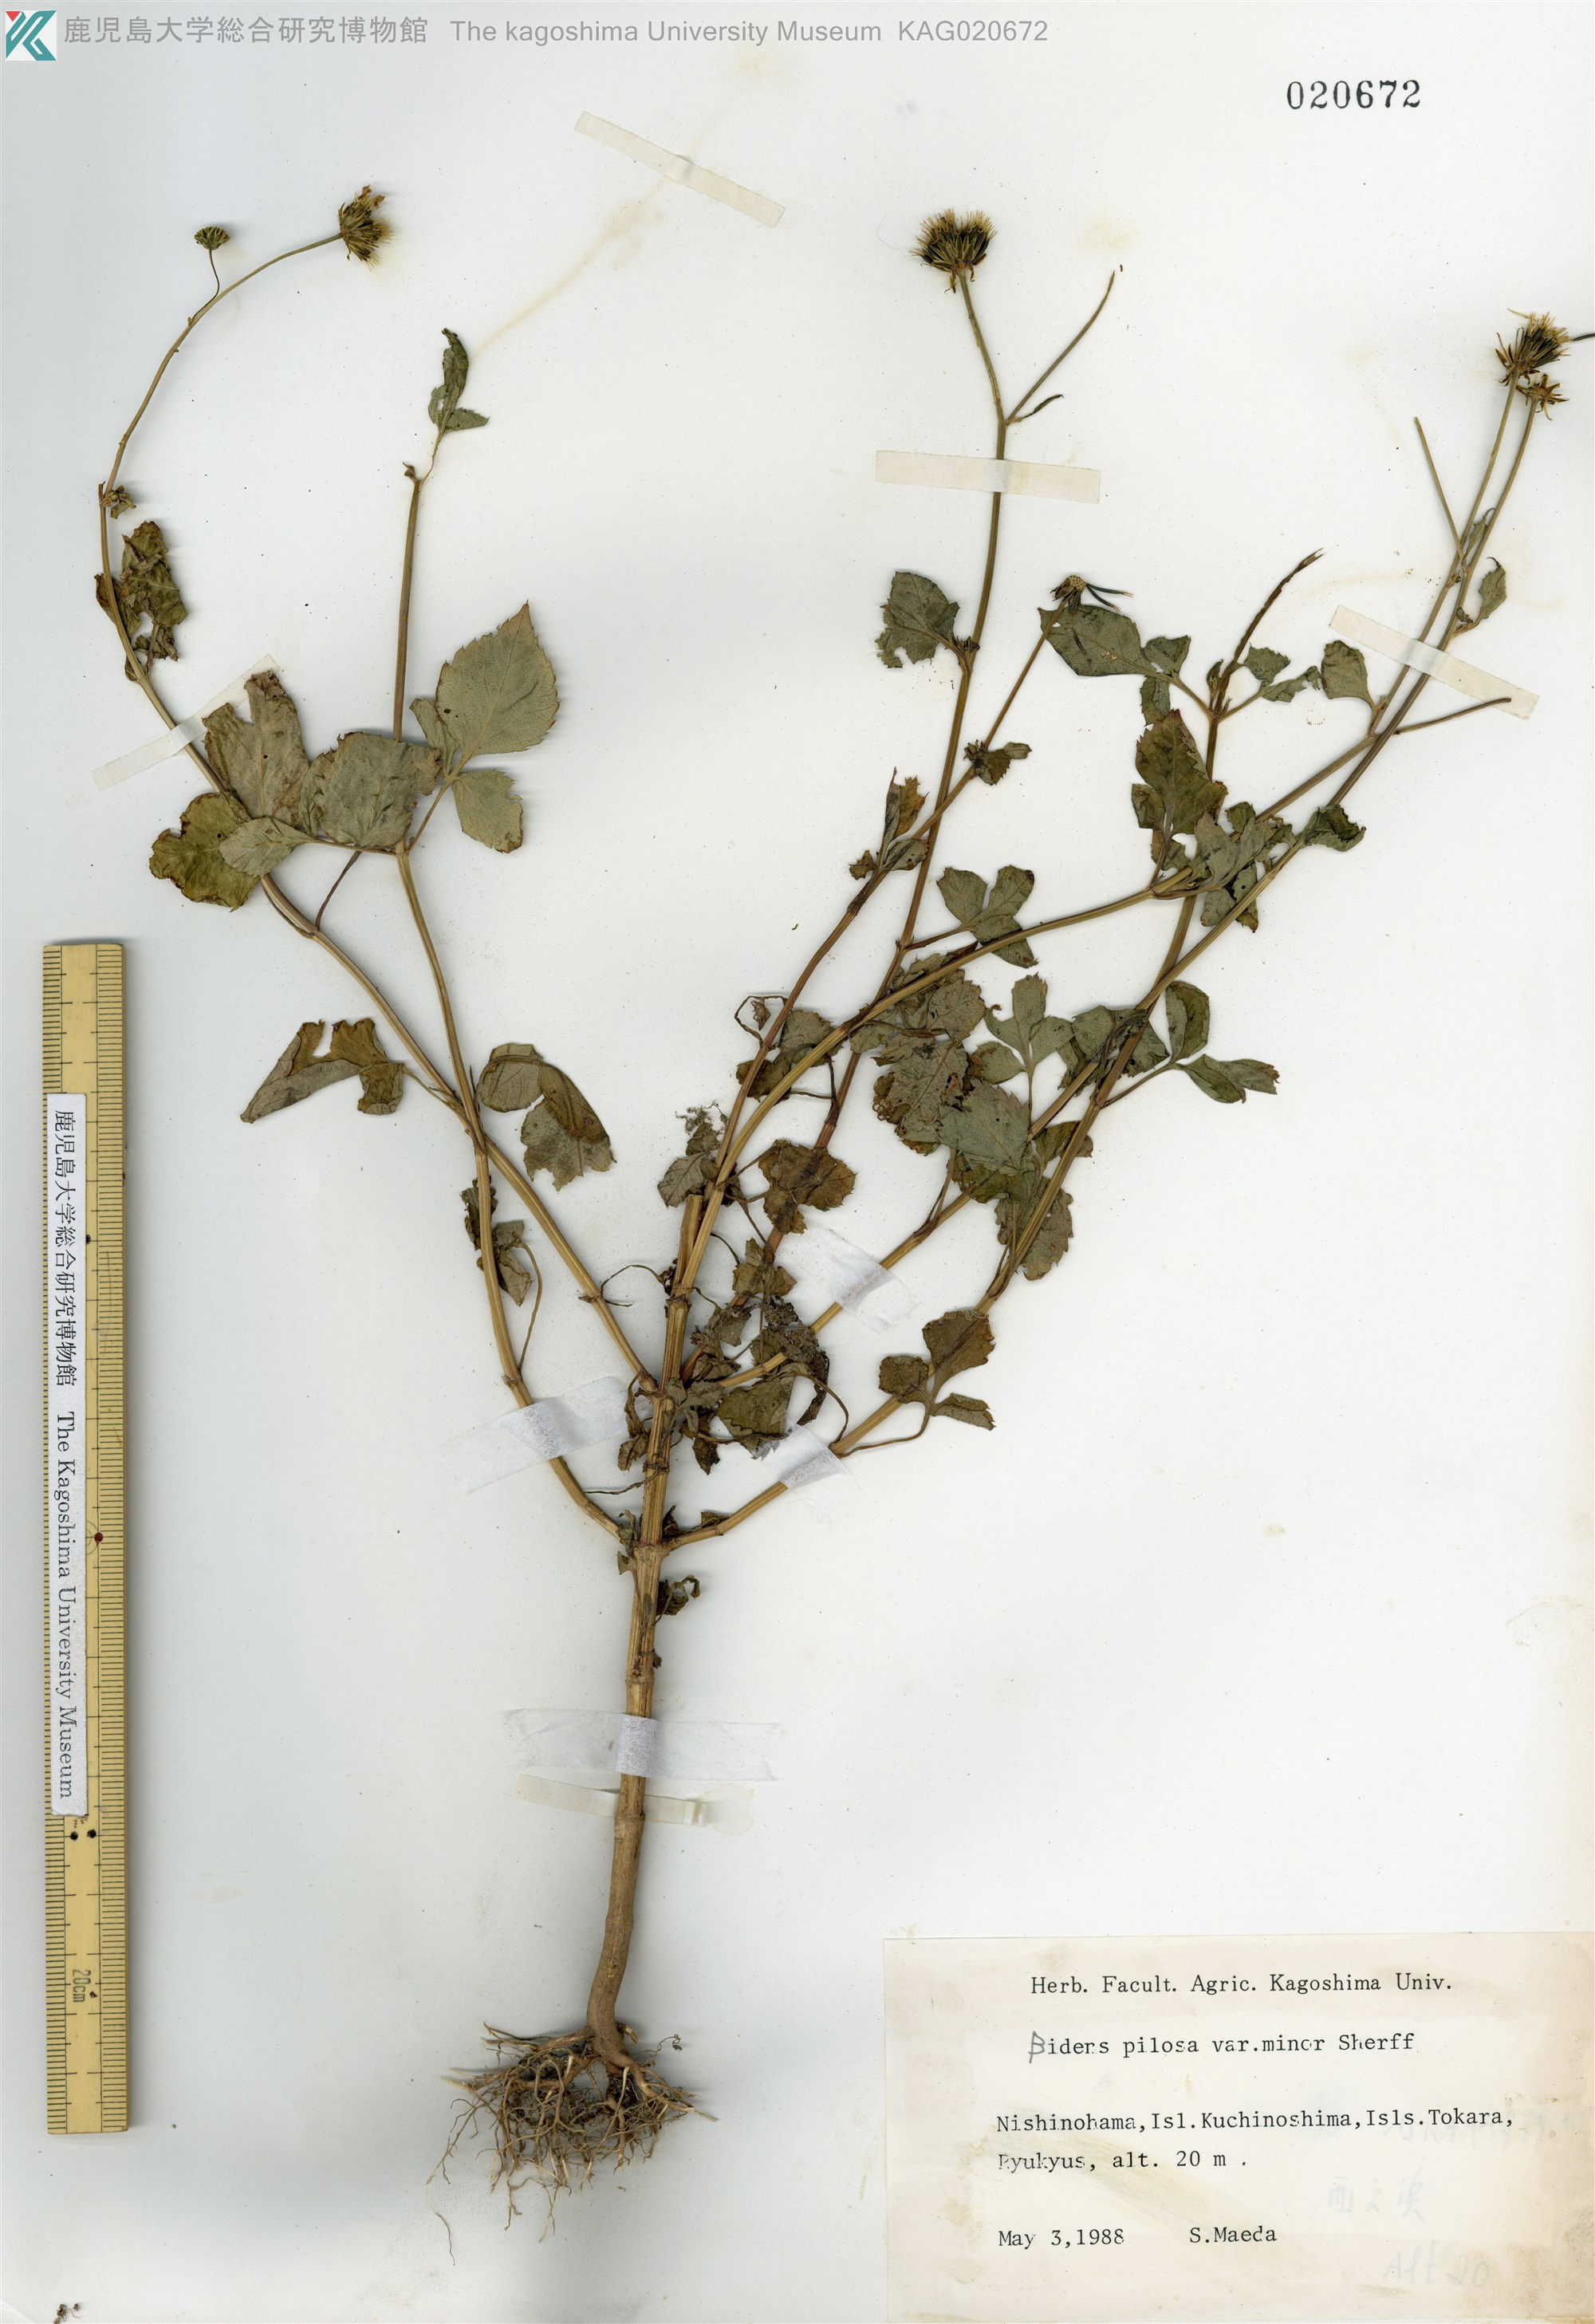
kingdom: Plantae
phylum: Tracheophyta
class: Magnoliopsida
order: Asterales
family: Asteraceae
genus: Bidens
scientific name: Bidens pilosa
